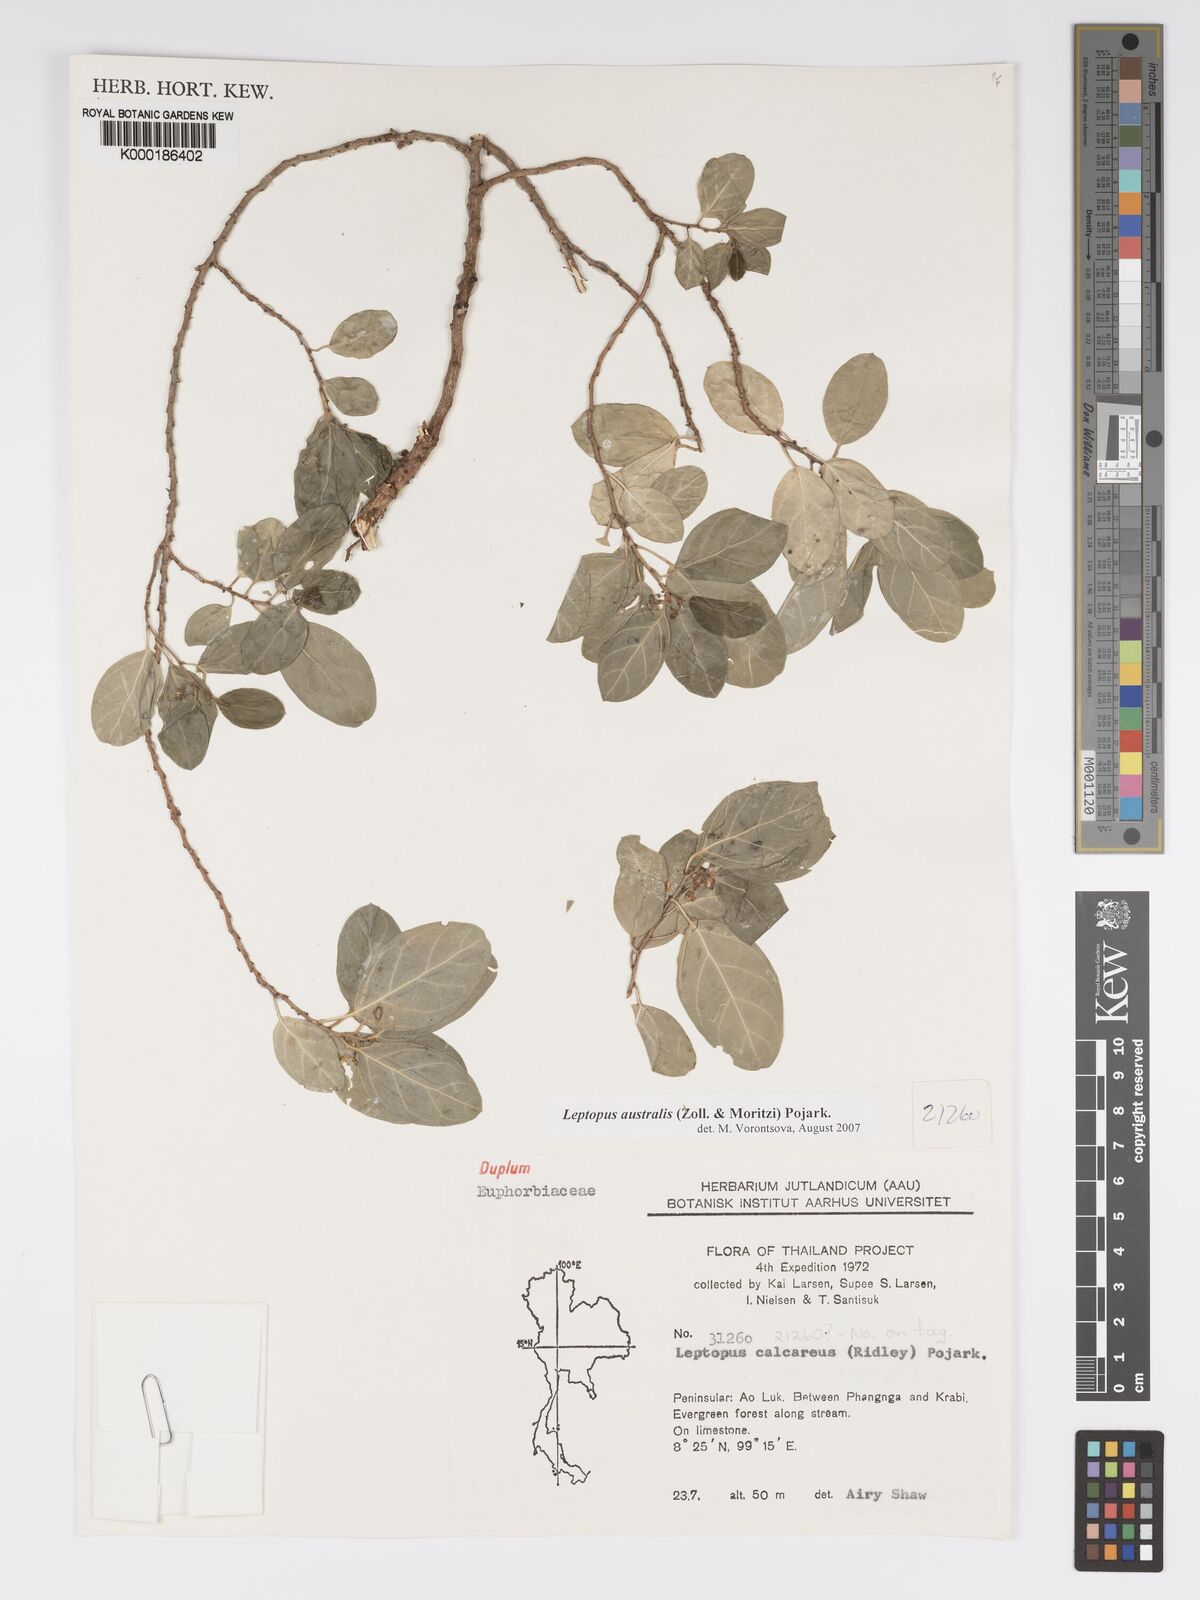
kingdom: Plantae
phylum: Tracheophyta
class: Magnoliopsida
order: Malpighiales
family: Phyllanthaceae
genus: Andrachne
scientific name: Andrachne
